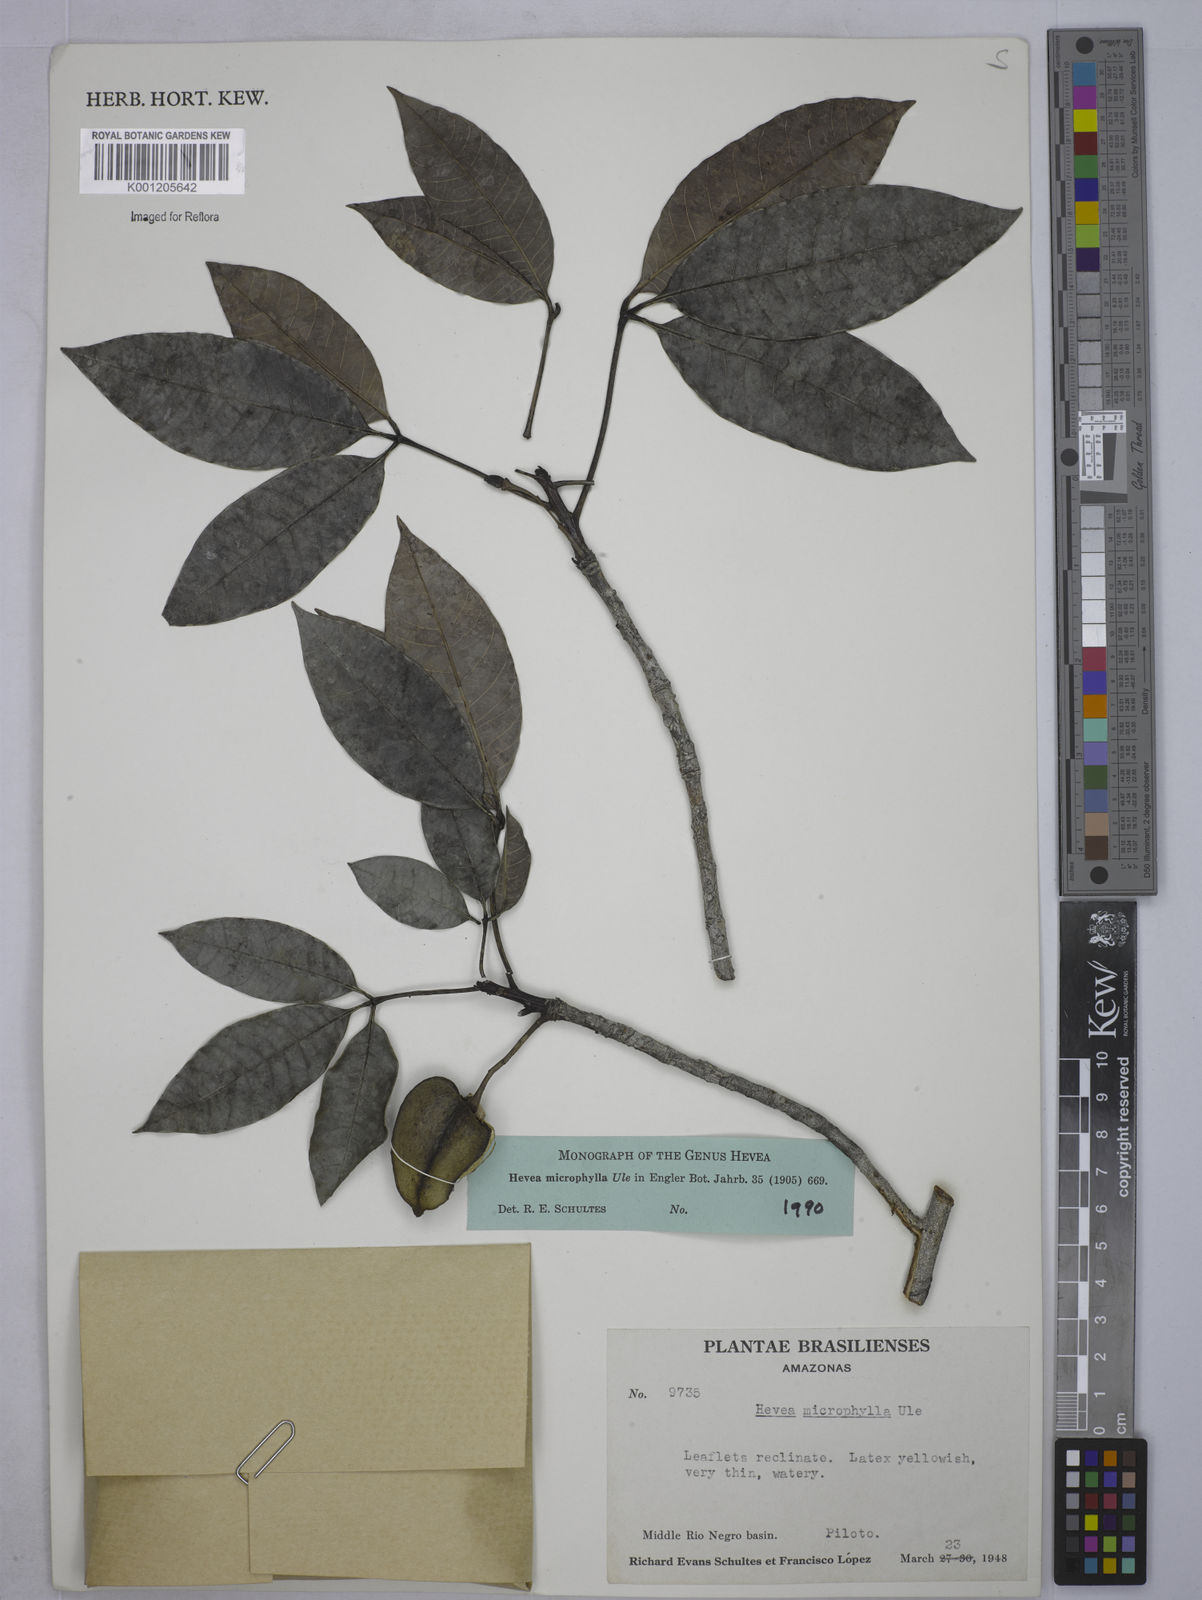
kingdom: Plantae
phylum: Tracheophyta
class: Magnoliopsida
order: Malpighiales
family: Euphorbiaceae
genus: Hevea
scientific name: Hevea microphylla
